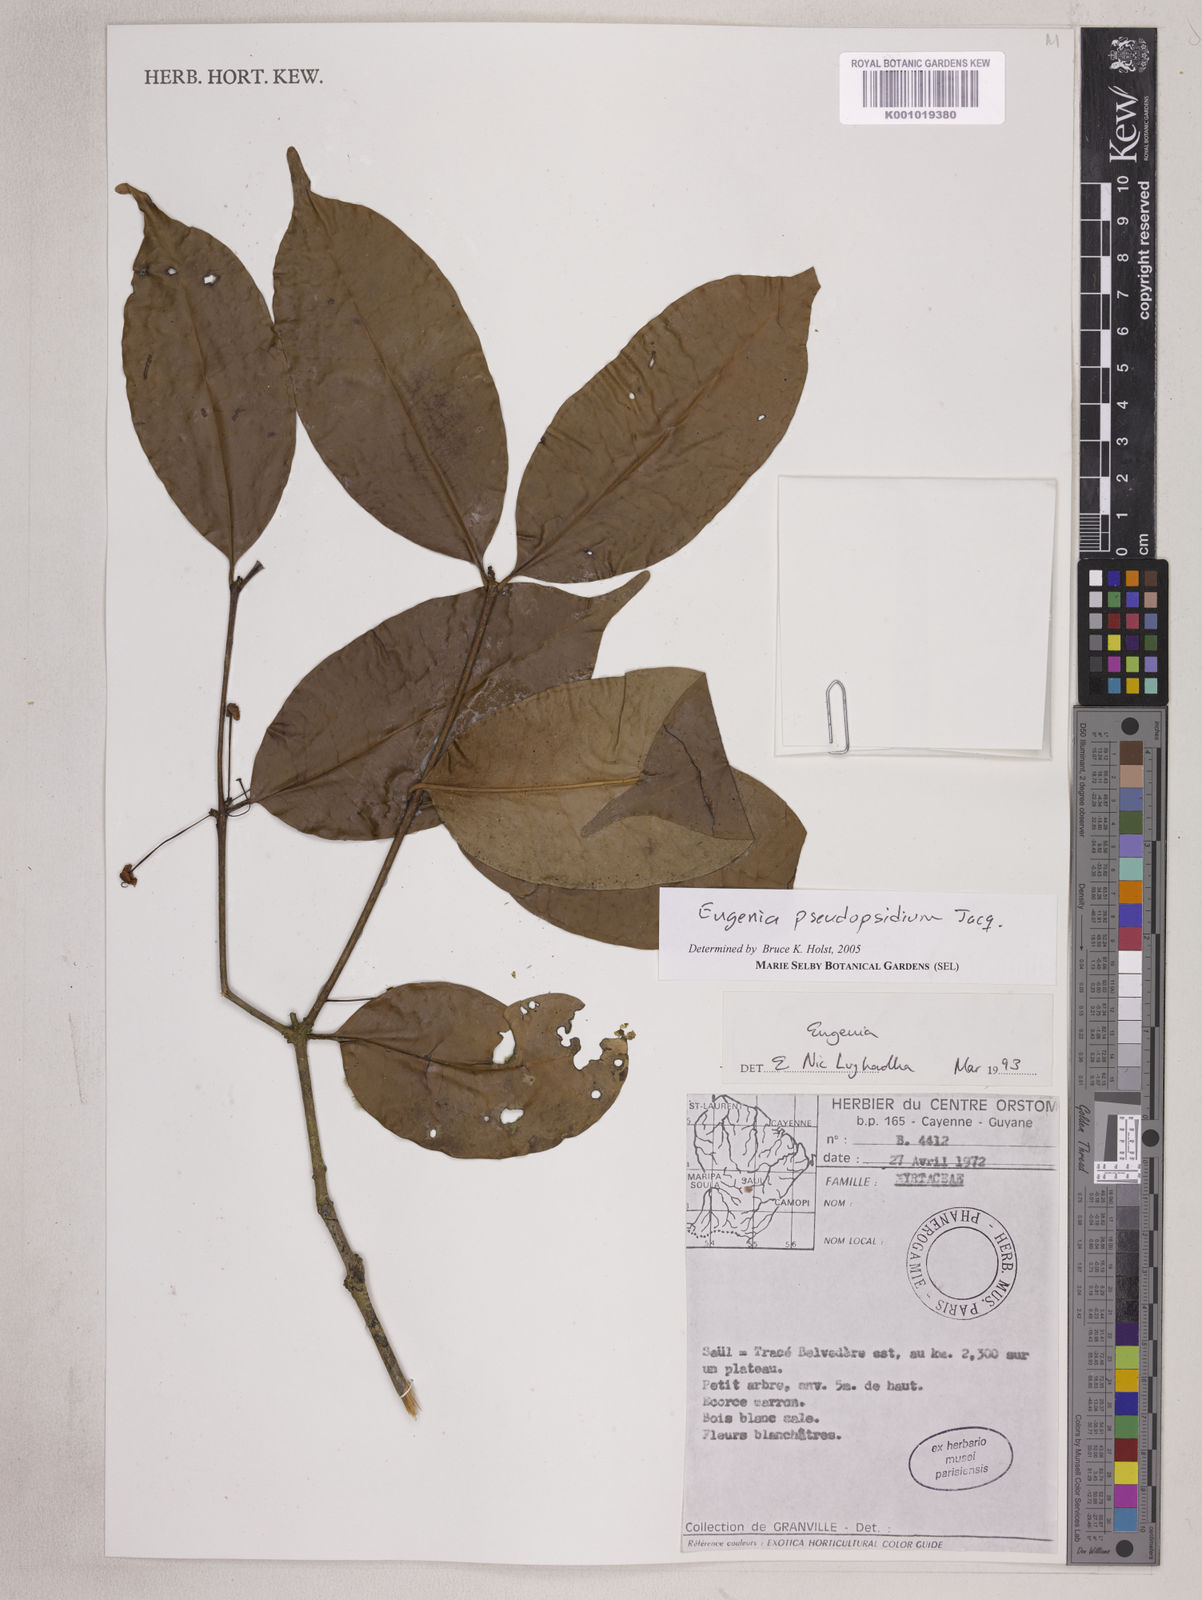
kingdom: Plantae
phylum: Tracheophyta
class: Magnoliopsida
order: Myrtales
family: Myrtaceae
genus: Eugenia
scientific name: Eugenia pseudopsidium
